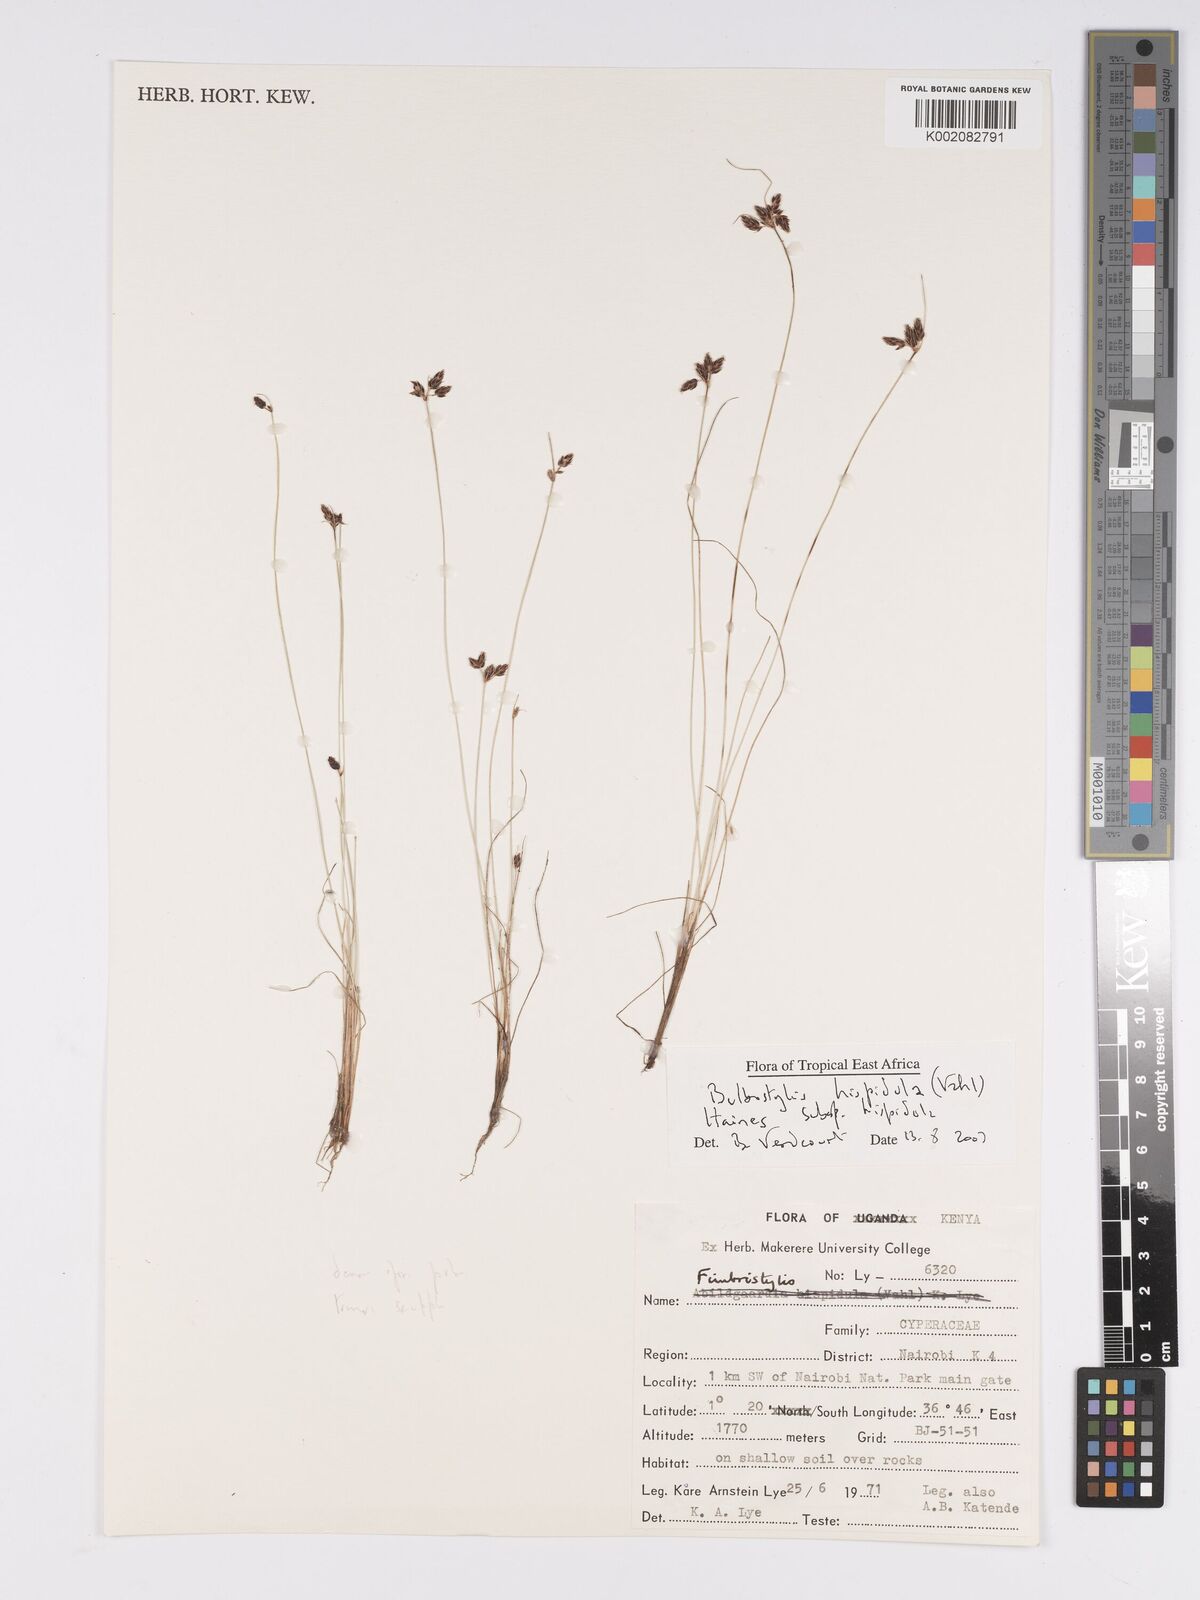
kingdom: Plantae
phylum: Tracheophyta
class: Liliopsida
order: Poales
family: Cyperaceae
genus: Bulbostylis
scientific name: Bulbostylis hispidula
